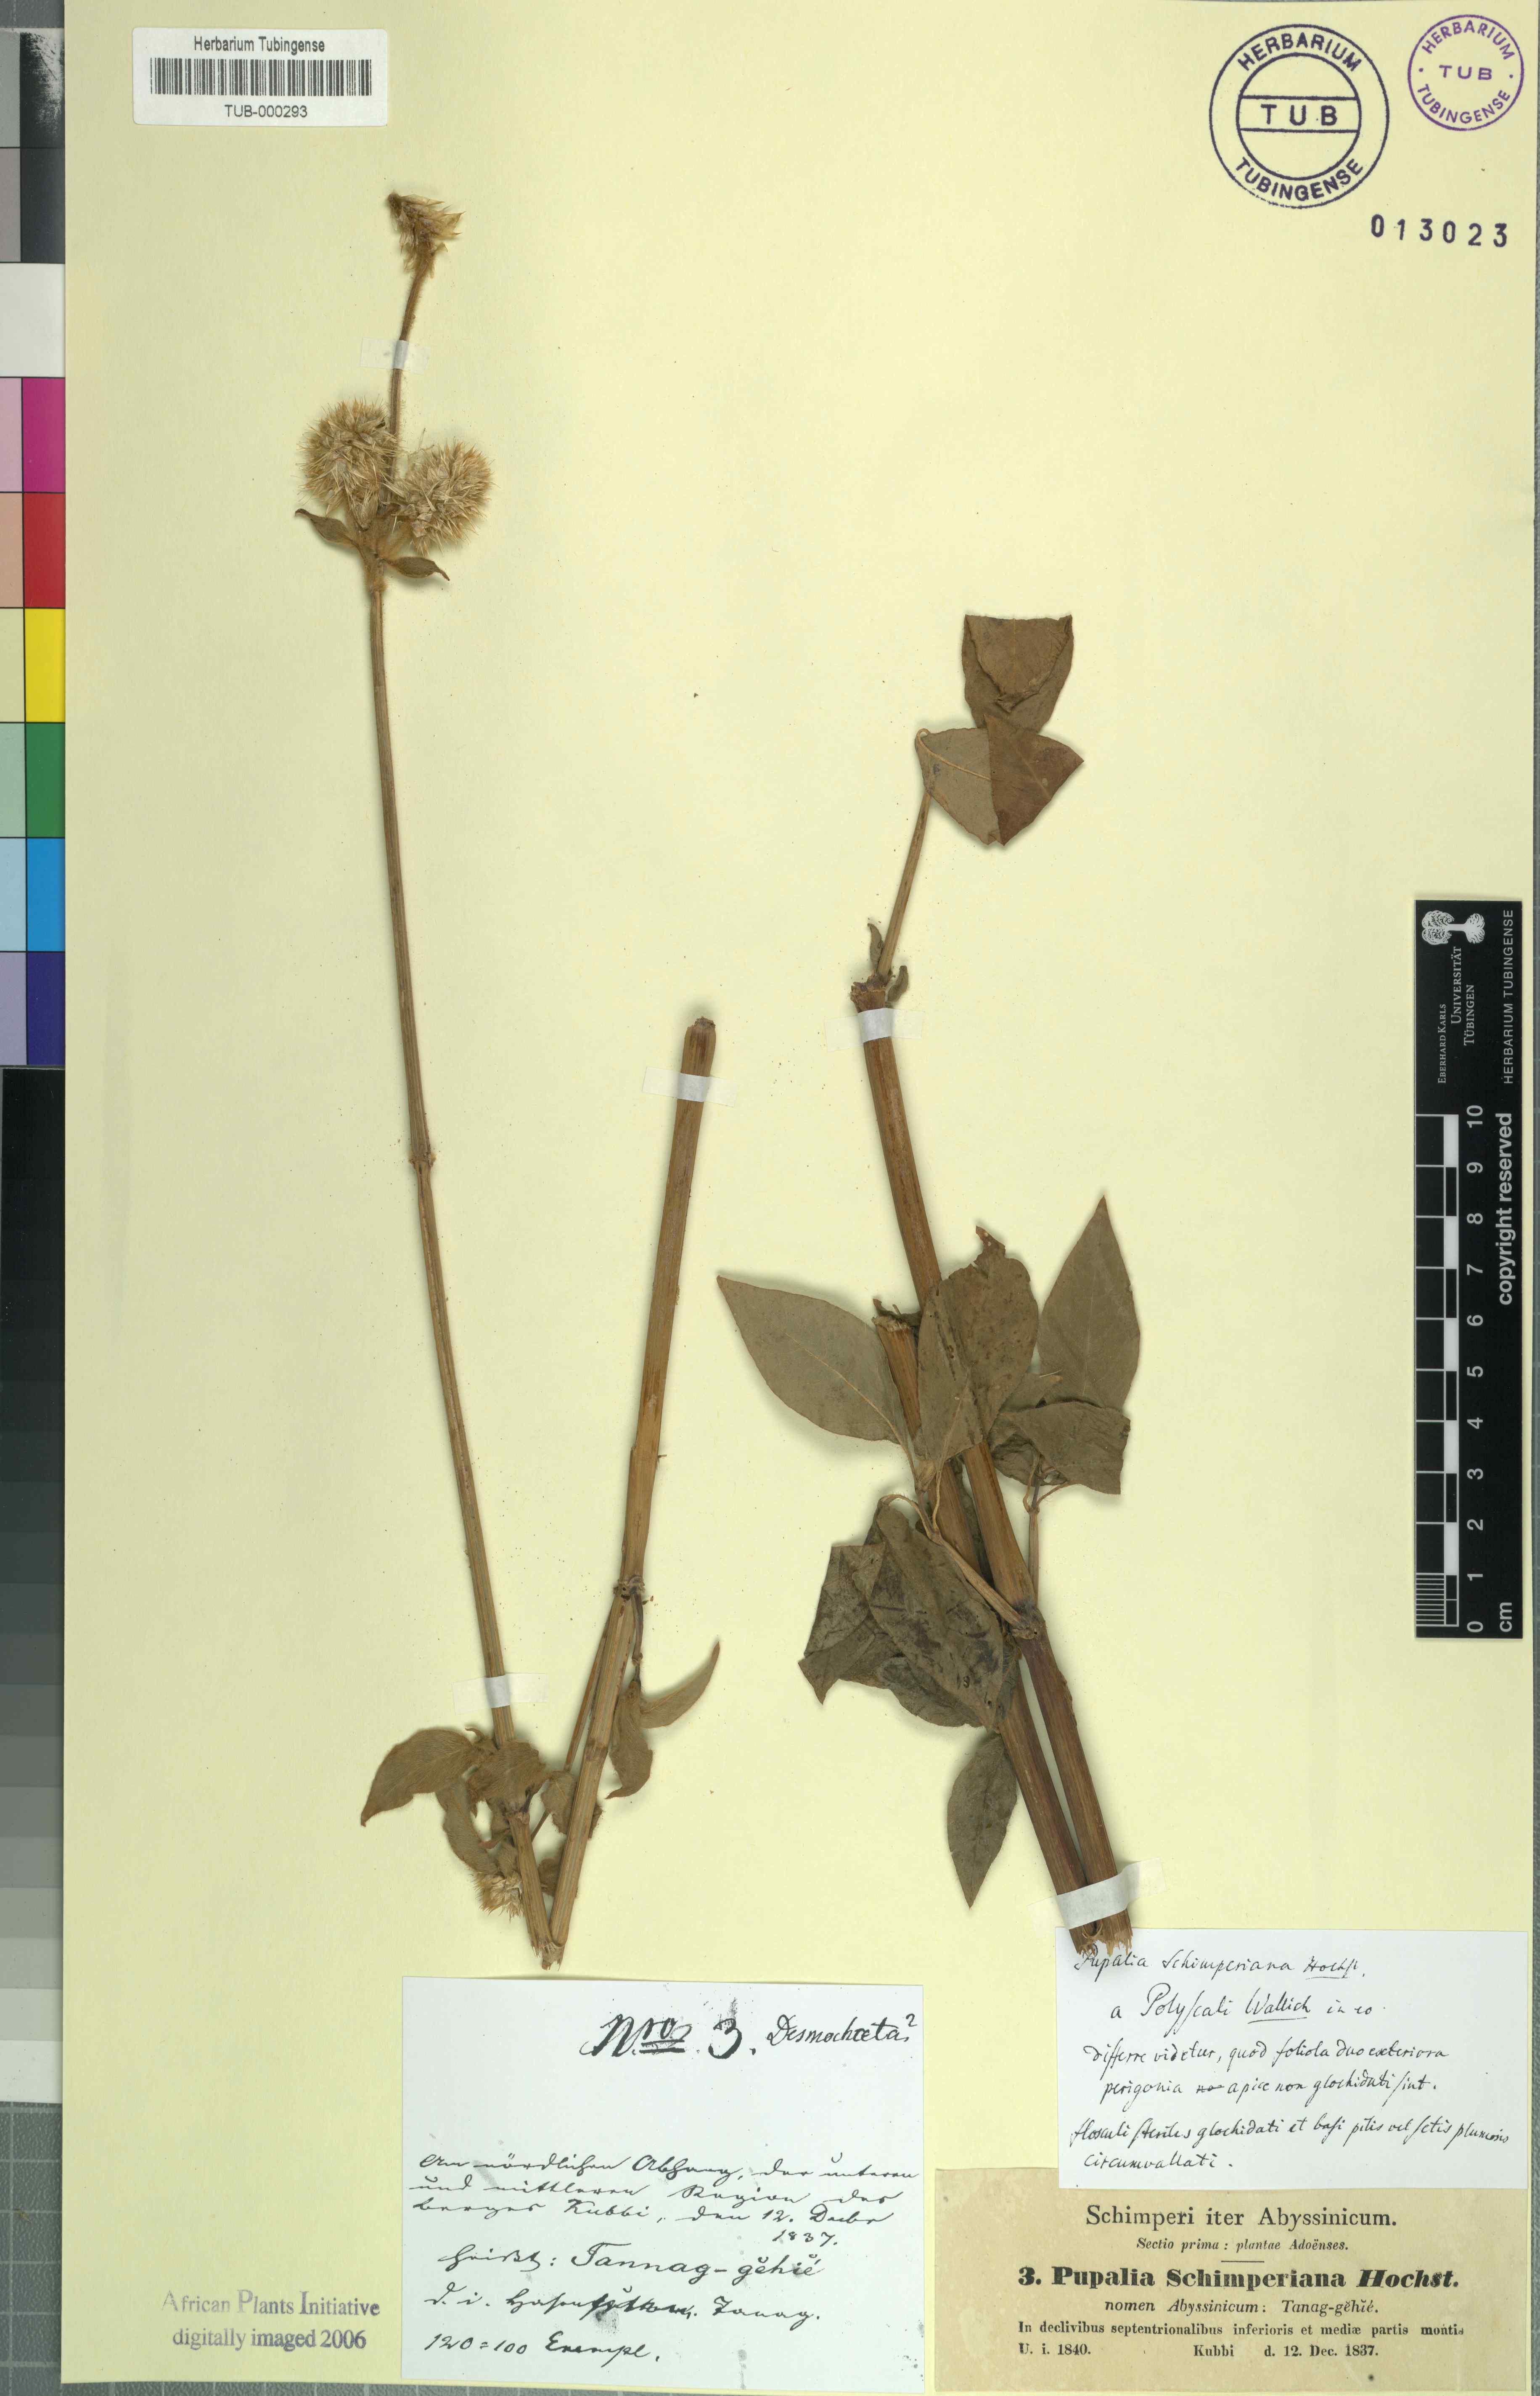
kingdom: Plantae
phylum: Tracheophyta
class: Magnoliopsida
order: Caryophyllales
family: Amaranthaceae
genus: Cyathula
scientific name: Cyathula cylindrica
